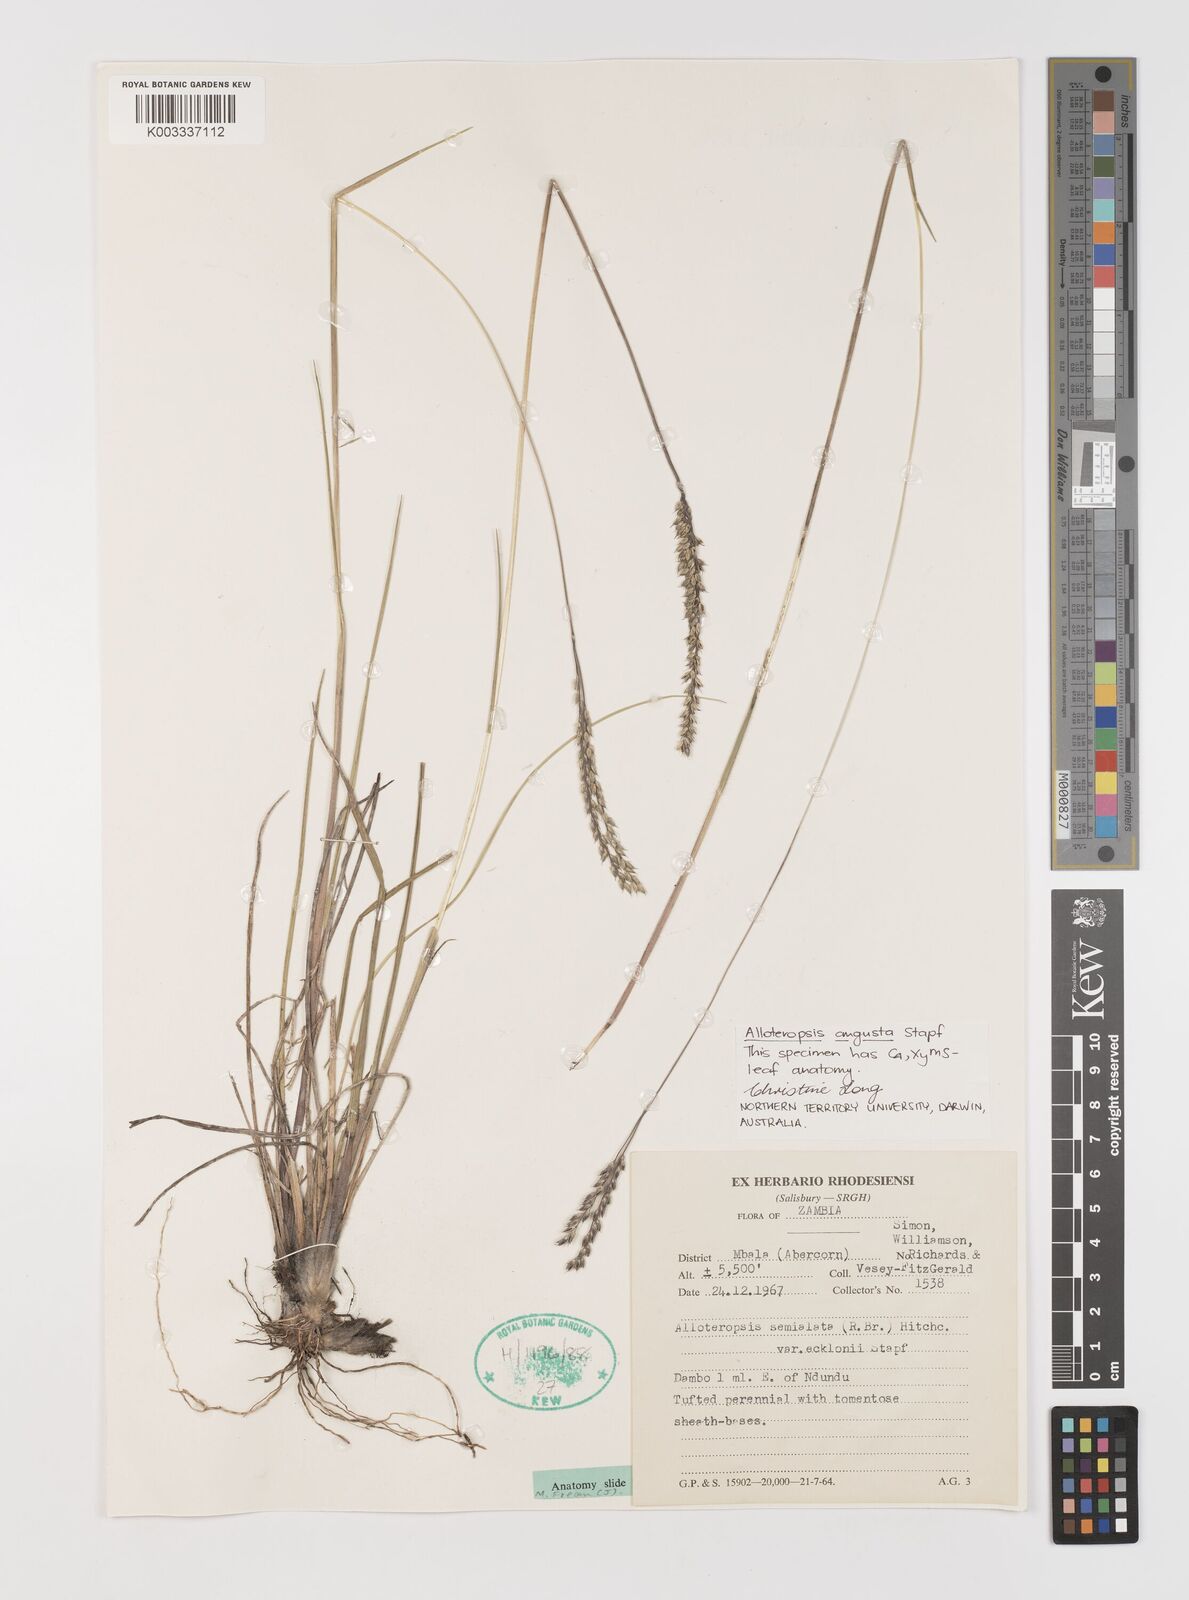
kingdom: Plantae
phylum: Tracheophyta
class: Liliopsida
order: Poales
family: Poaceae
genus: Alloteropsis
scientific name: Alloteropsis angusta
